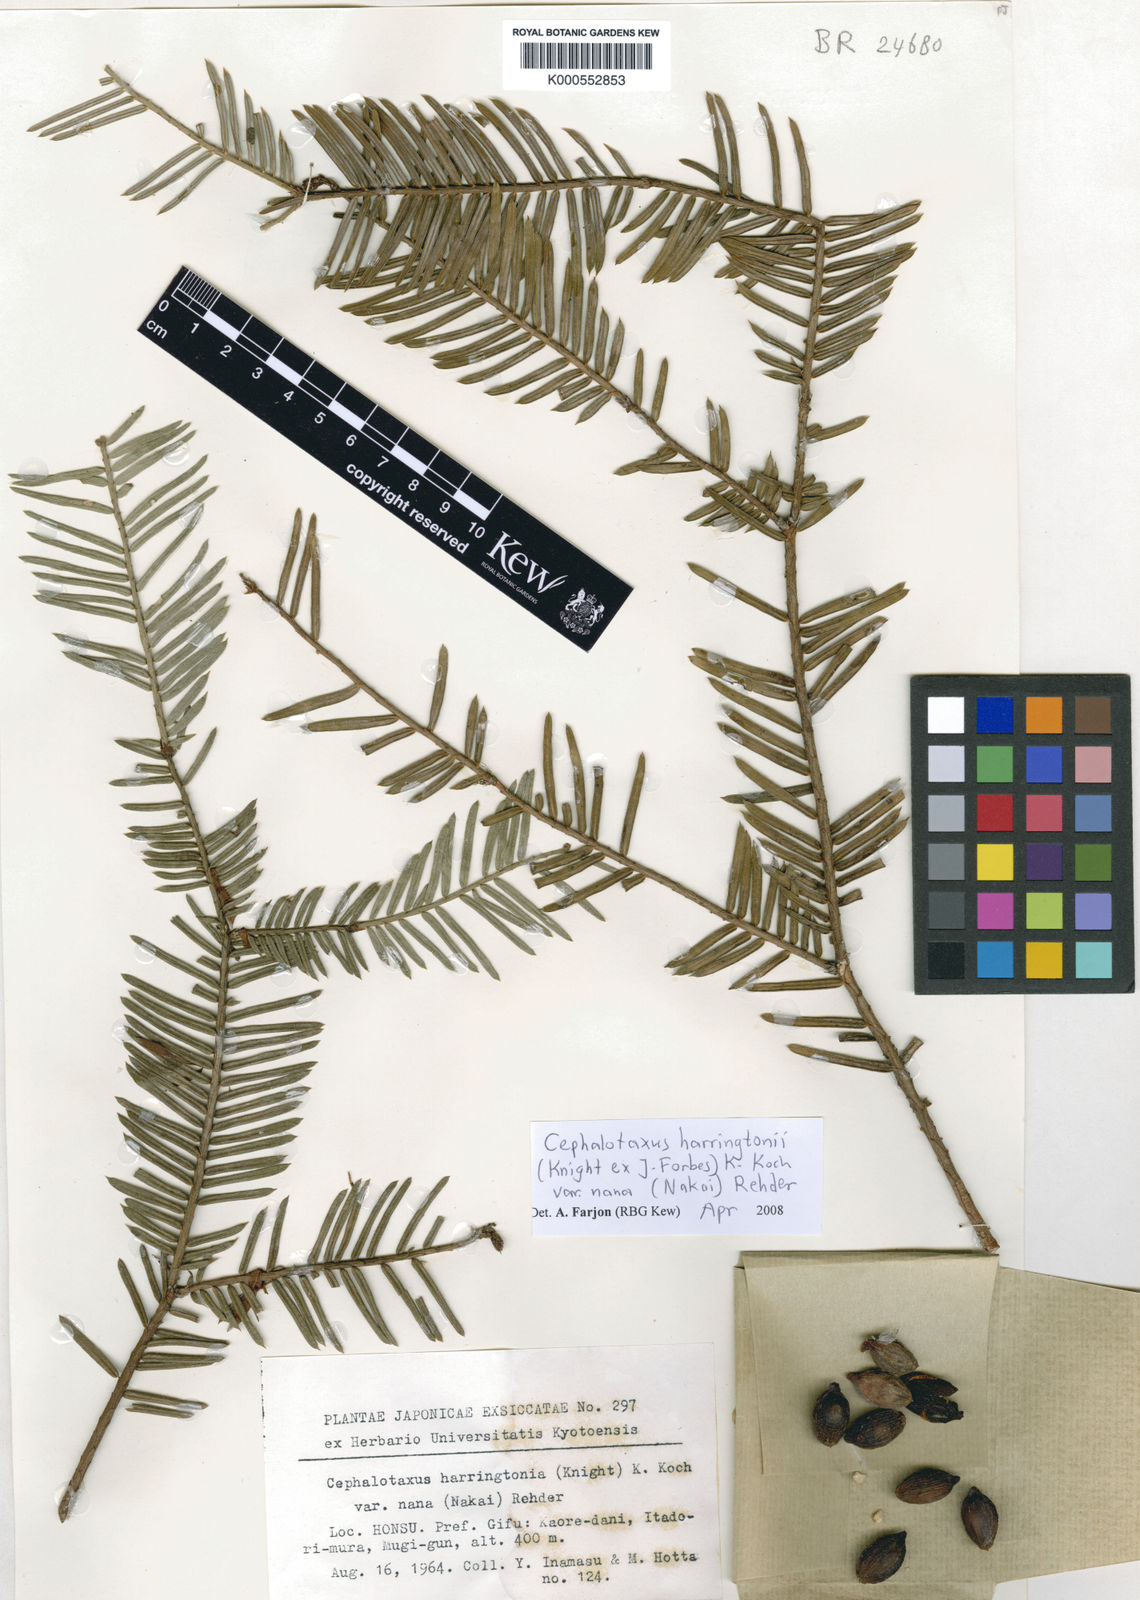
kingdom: Plantae
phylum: Tracheophyta
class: Pinopsida
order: Pinales
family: Cephalotaxaceae
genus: Cephalotaxus
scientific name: Cephalotaxus
